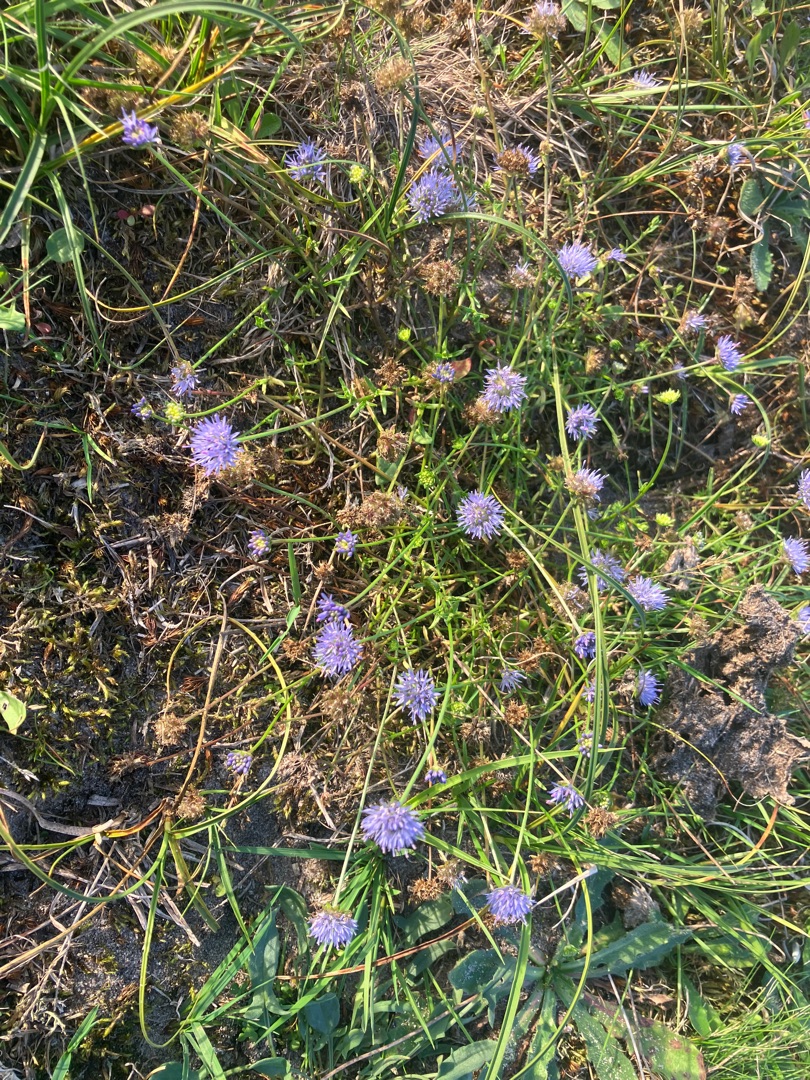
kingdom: Plantae
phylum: Tracheophyta
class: Magnoliopsida
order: Asterales
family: Campanulaceae
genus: Jasione
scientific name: Jasione montana
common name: Blåmunke
